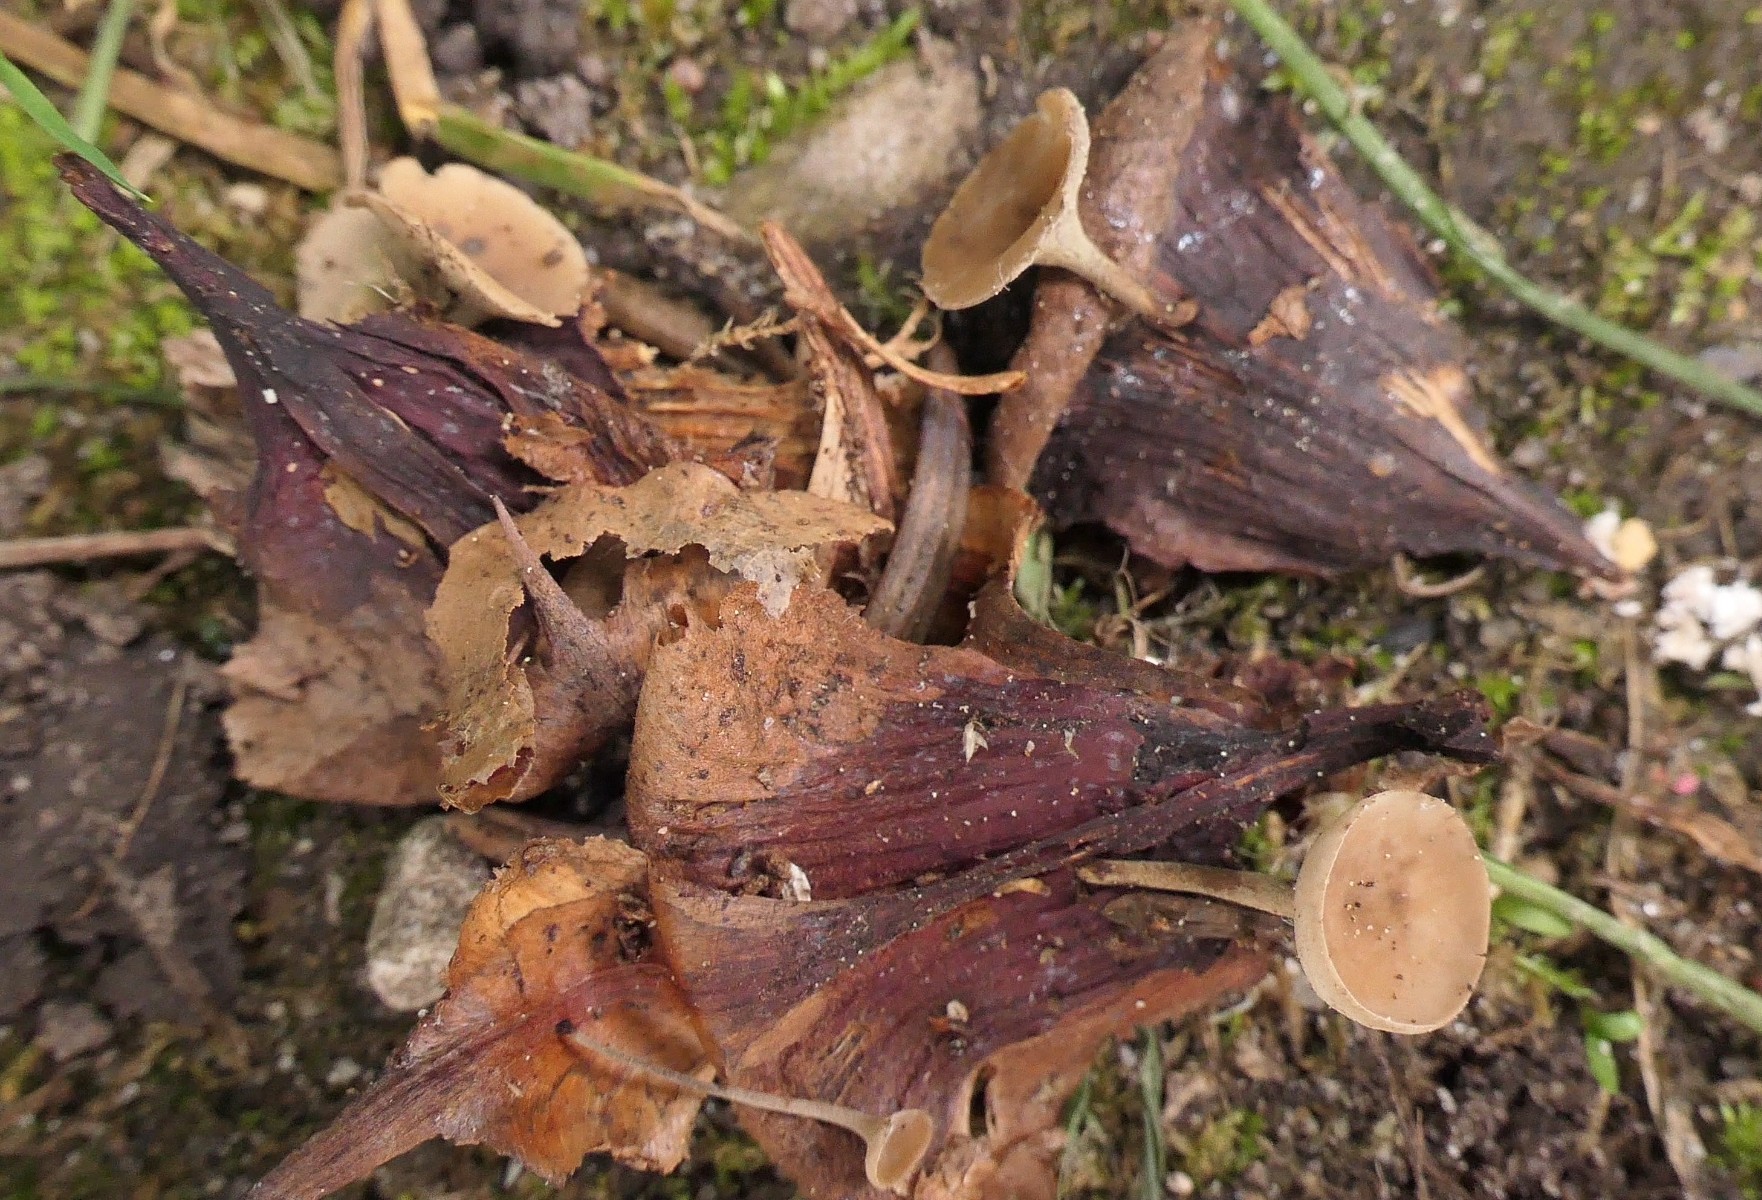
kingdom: Fungi
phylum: Ascomycota
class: Leotiomycetes
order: Helotiales
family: Sclerotiniaceae
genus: Ciboria
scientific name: Ciboria rufofusca
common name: kogleskæl-knoldskive
